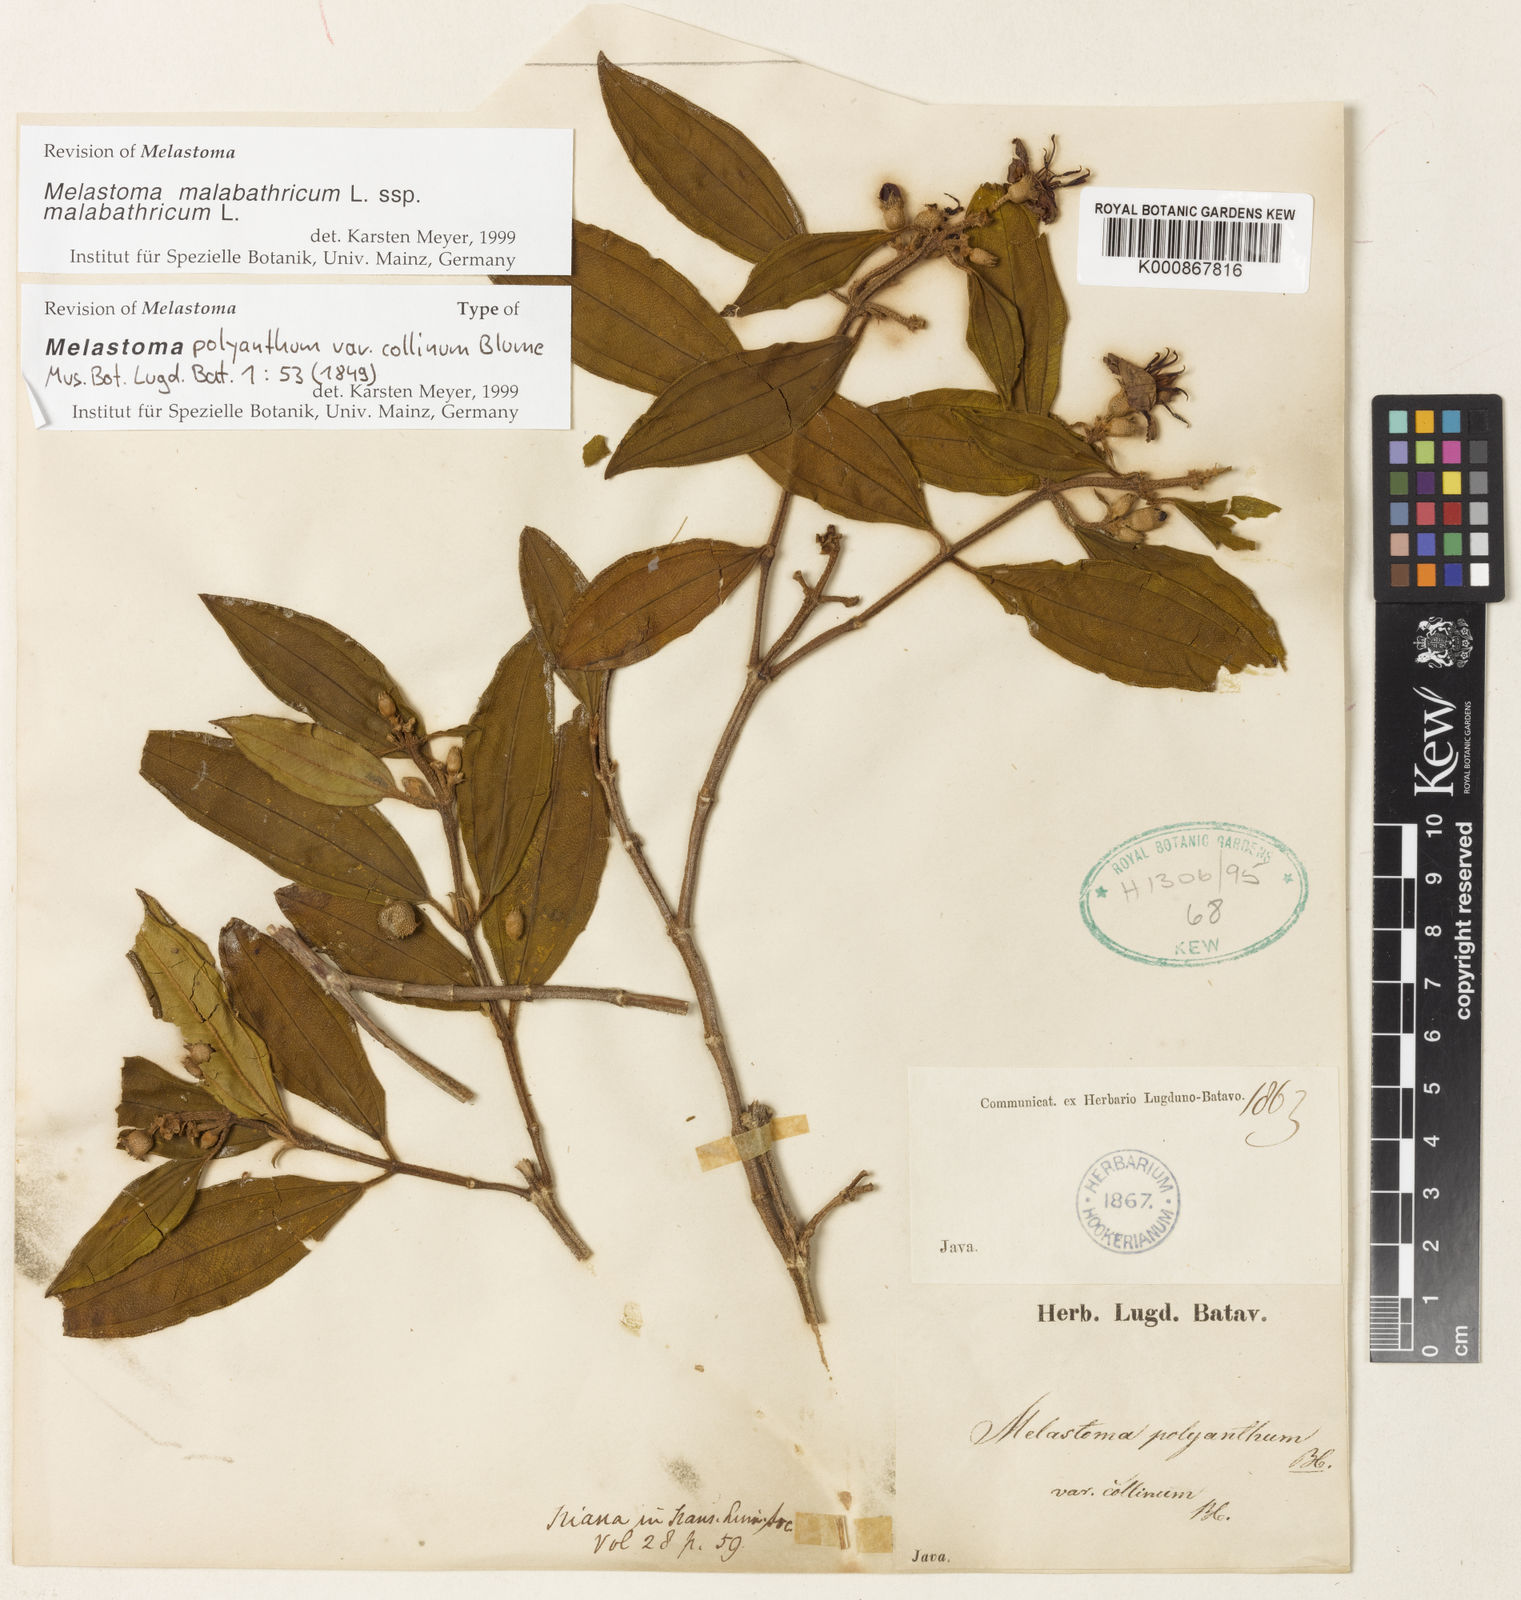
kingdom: Plantae
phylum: Tracheophyta
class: Magnoliopsida
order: Myrtales
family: Melastomataceae
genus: Melastoma
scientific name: Melastoma malabathricum
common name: Indian-rhododendron
